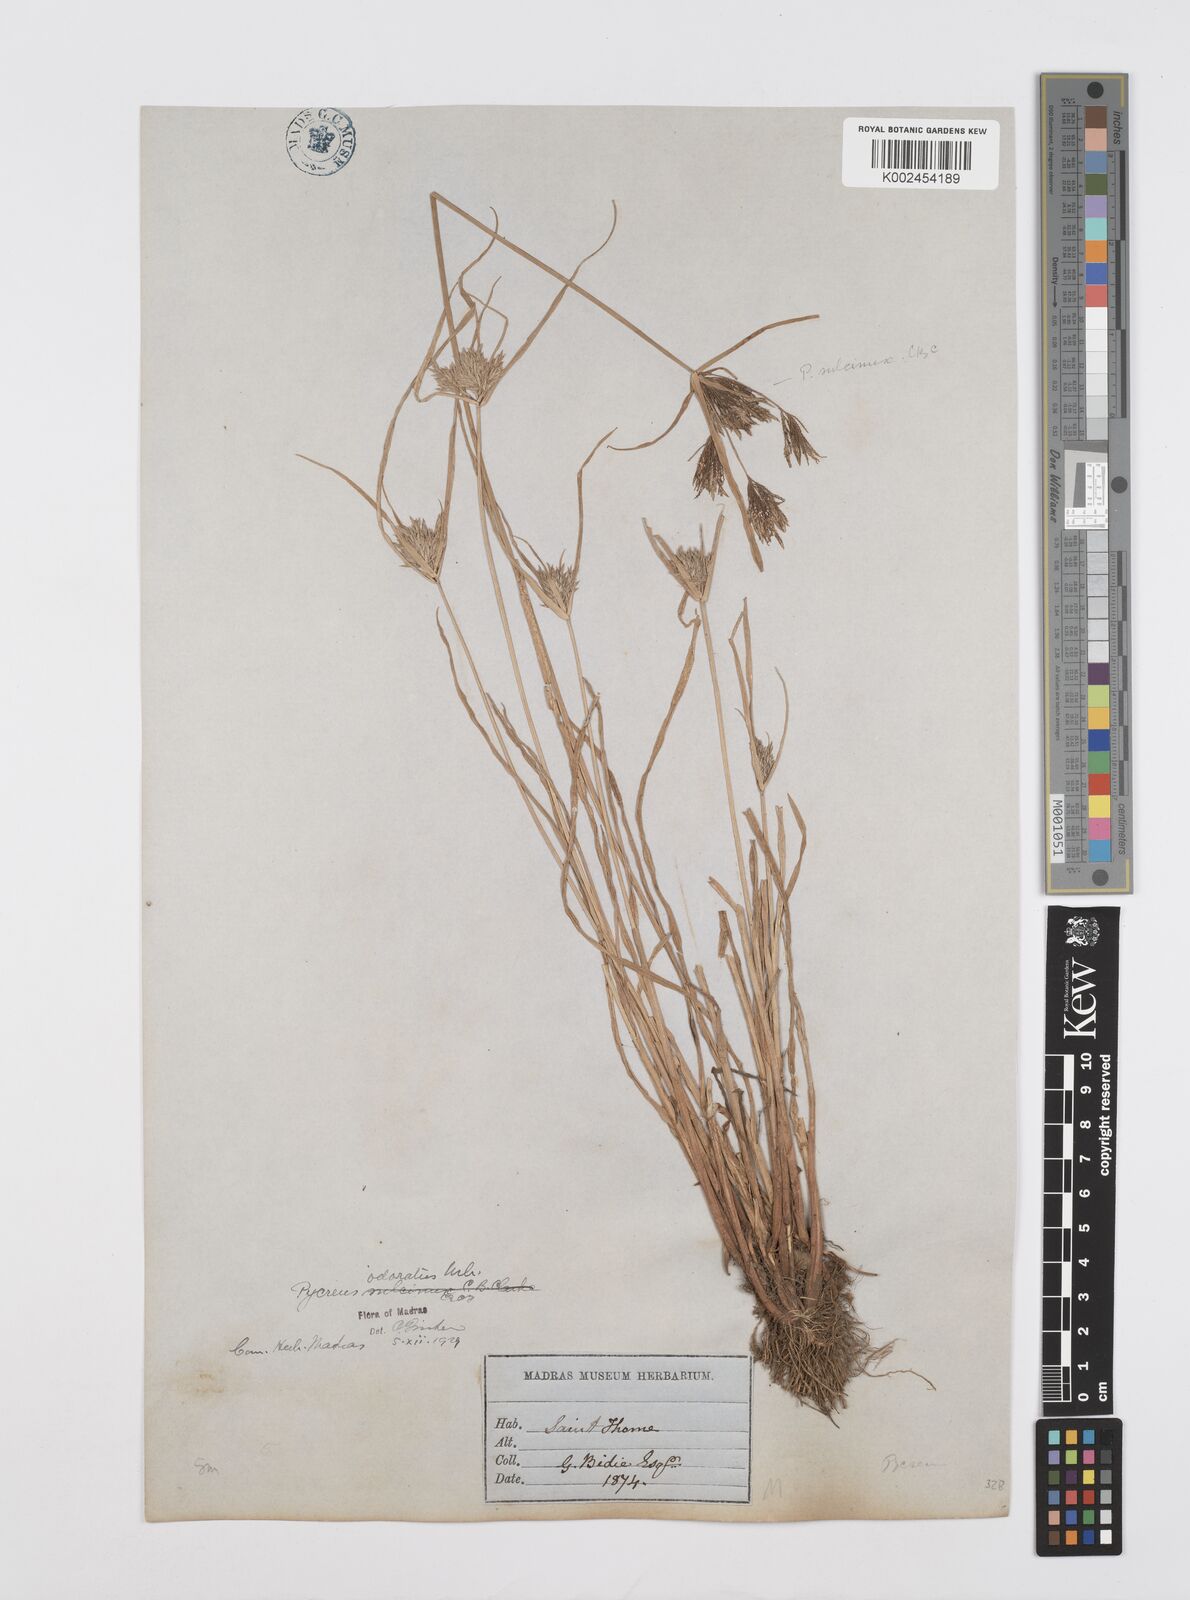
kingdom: Plantae
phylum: Tracheophyta
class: Liliopsida
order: Poales
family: Cyperaceae
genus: Cyperus
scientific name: Cyperus polystachyos
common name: Bunchy flat sedge
